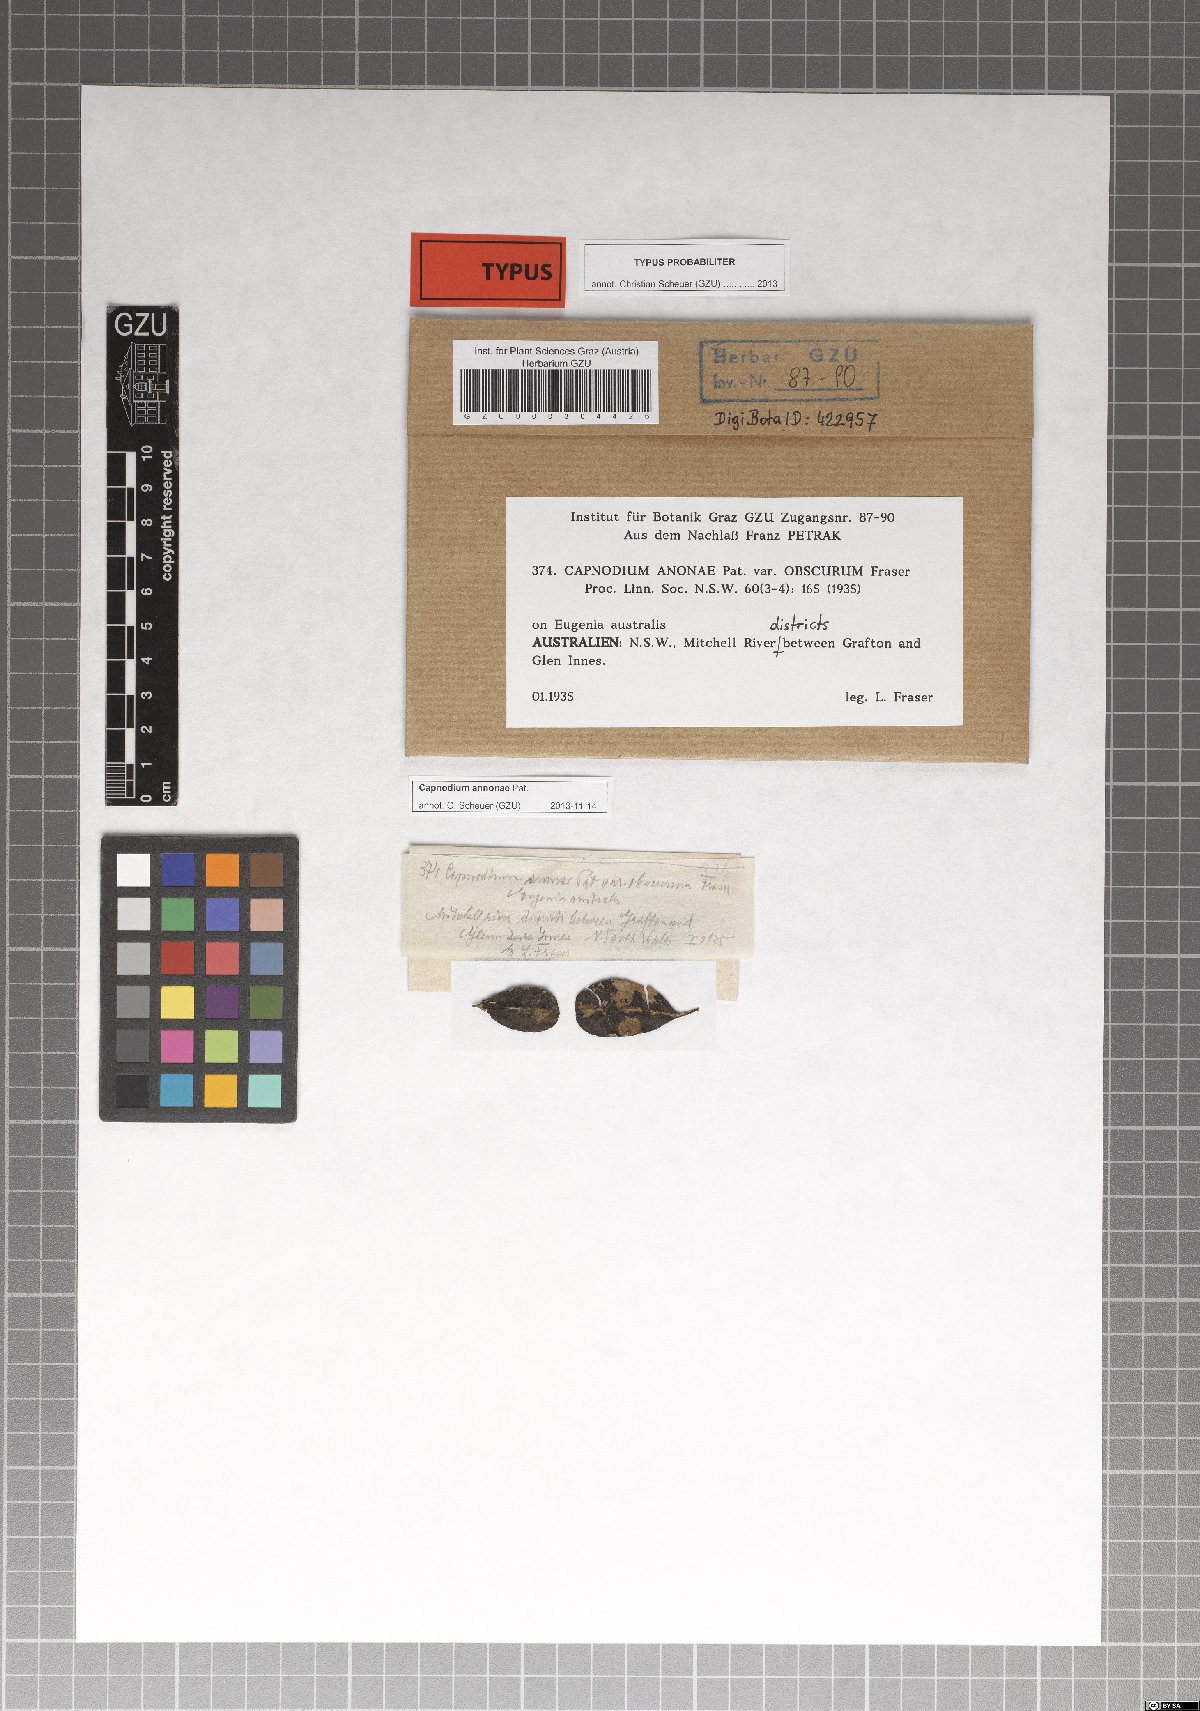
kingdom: Fungi
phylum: Ascomycota
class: Dothideomycetes
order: Capnodiales
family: Capnodiaceae
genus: Capnodium
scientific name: Capnodium annonae
